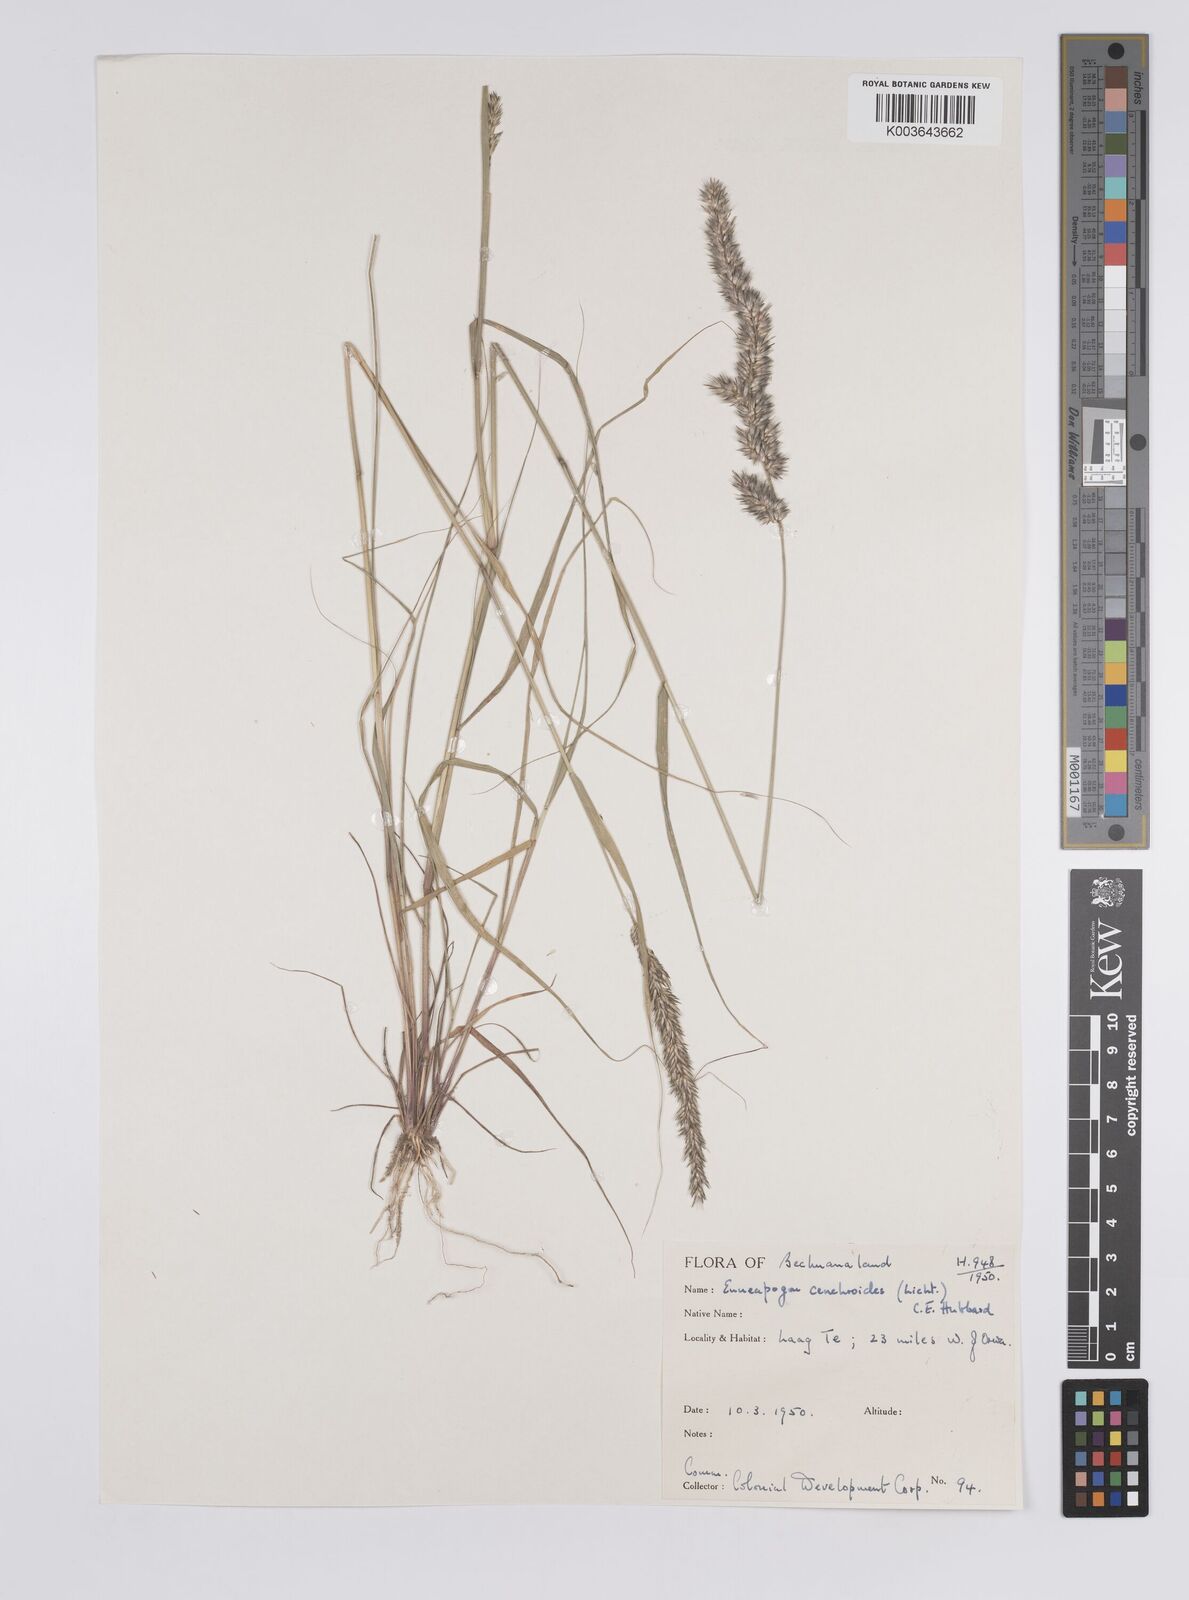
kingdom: Plantae
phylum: Tracheophyta
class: Liliopsida
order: Poales
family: Poaceae
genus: Enneapogon
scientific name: Enneapogon cenchroides
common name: Soft feather pappusgrass
